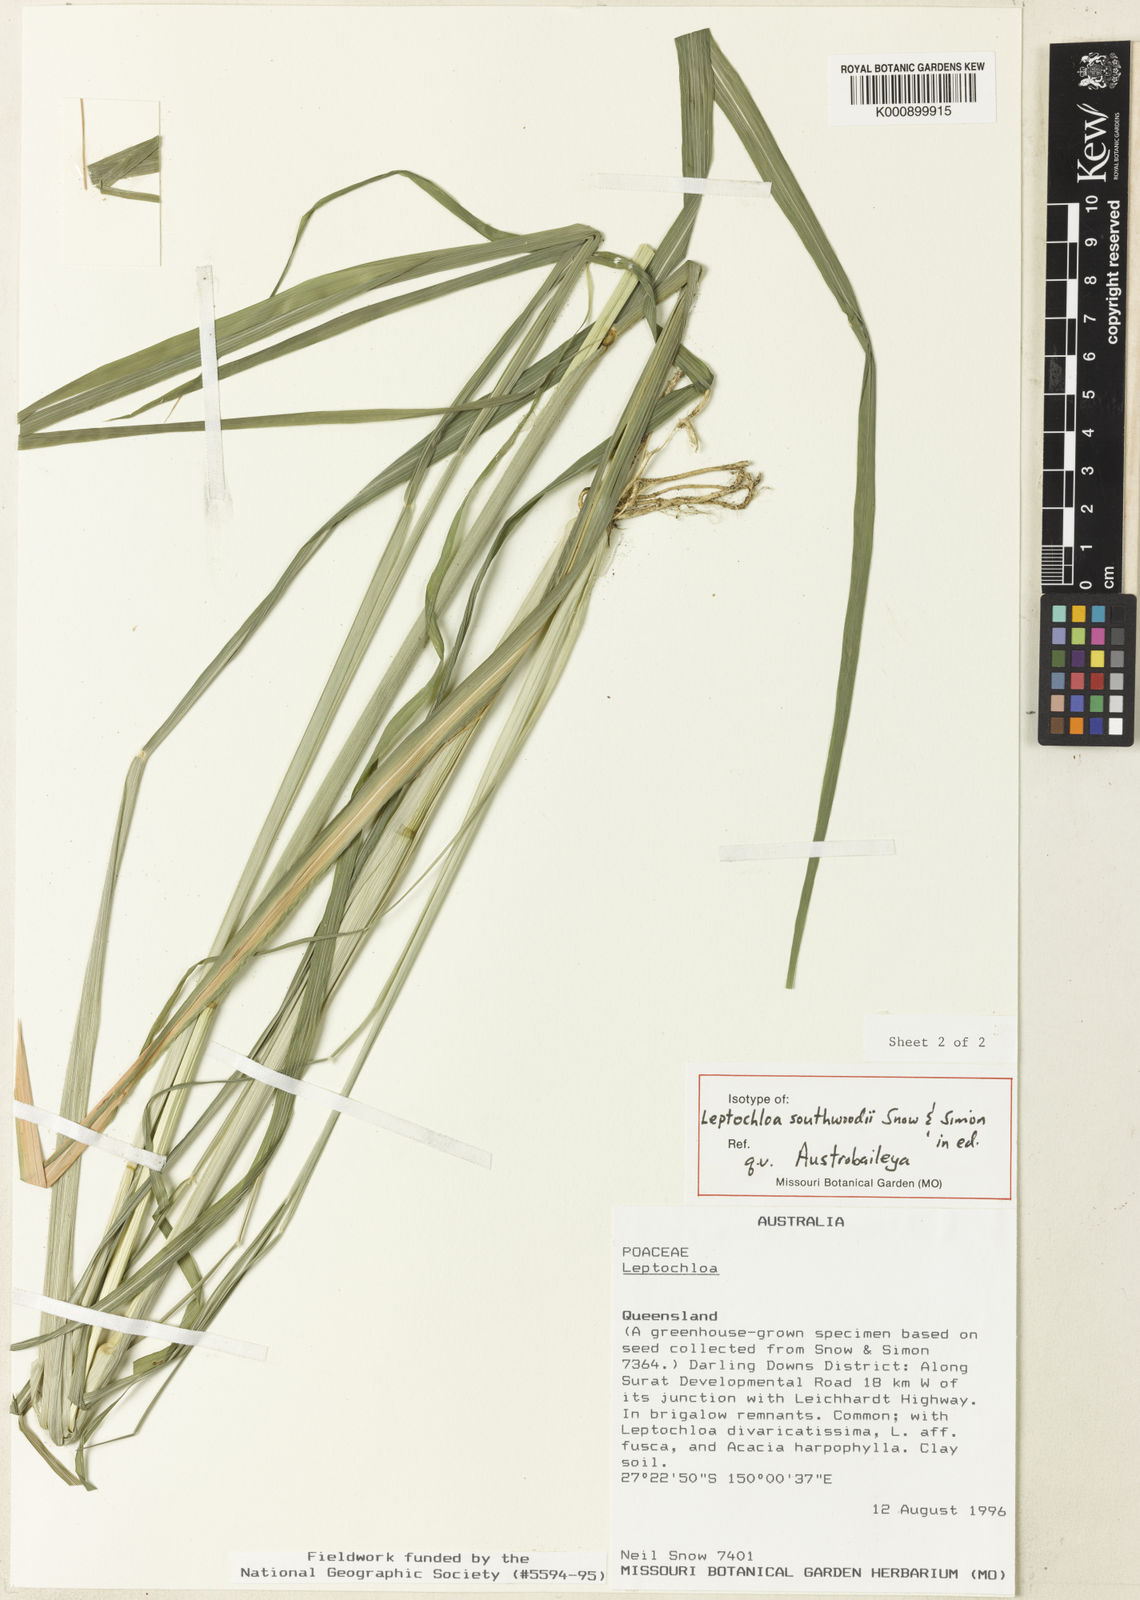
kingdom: Plantae
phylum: Tracheophyta
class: Liliopsida
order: Poales
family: Poaceae
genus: Leptochloa
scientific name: Leptochloa southwoodii
